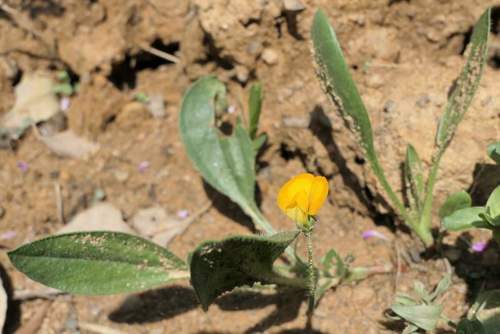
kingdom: Plantae
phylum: Tracheophyta
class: Magnoliopsida
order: Fabales
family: Fabaceae
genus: Scorpiurus
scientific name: Scorpiurus vermiculatus
